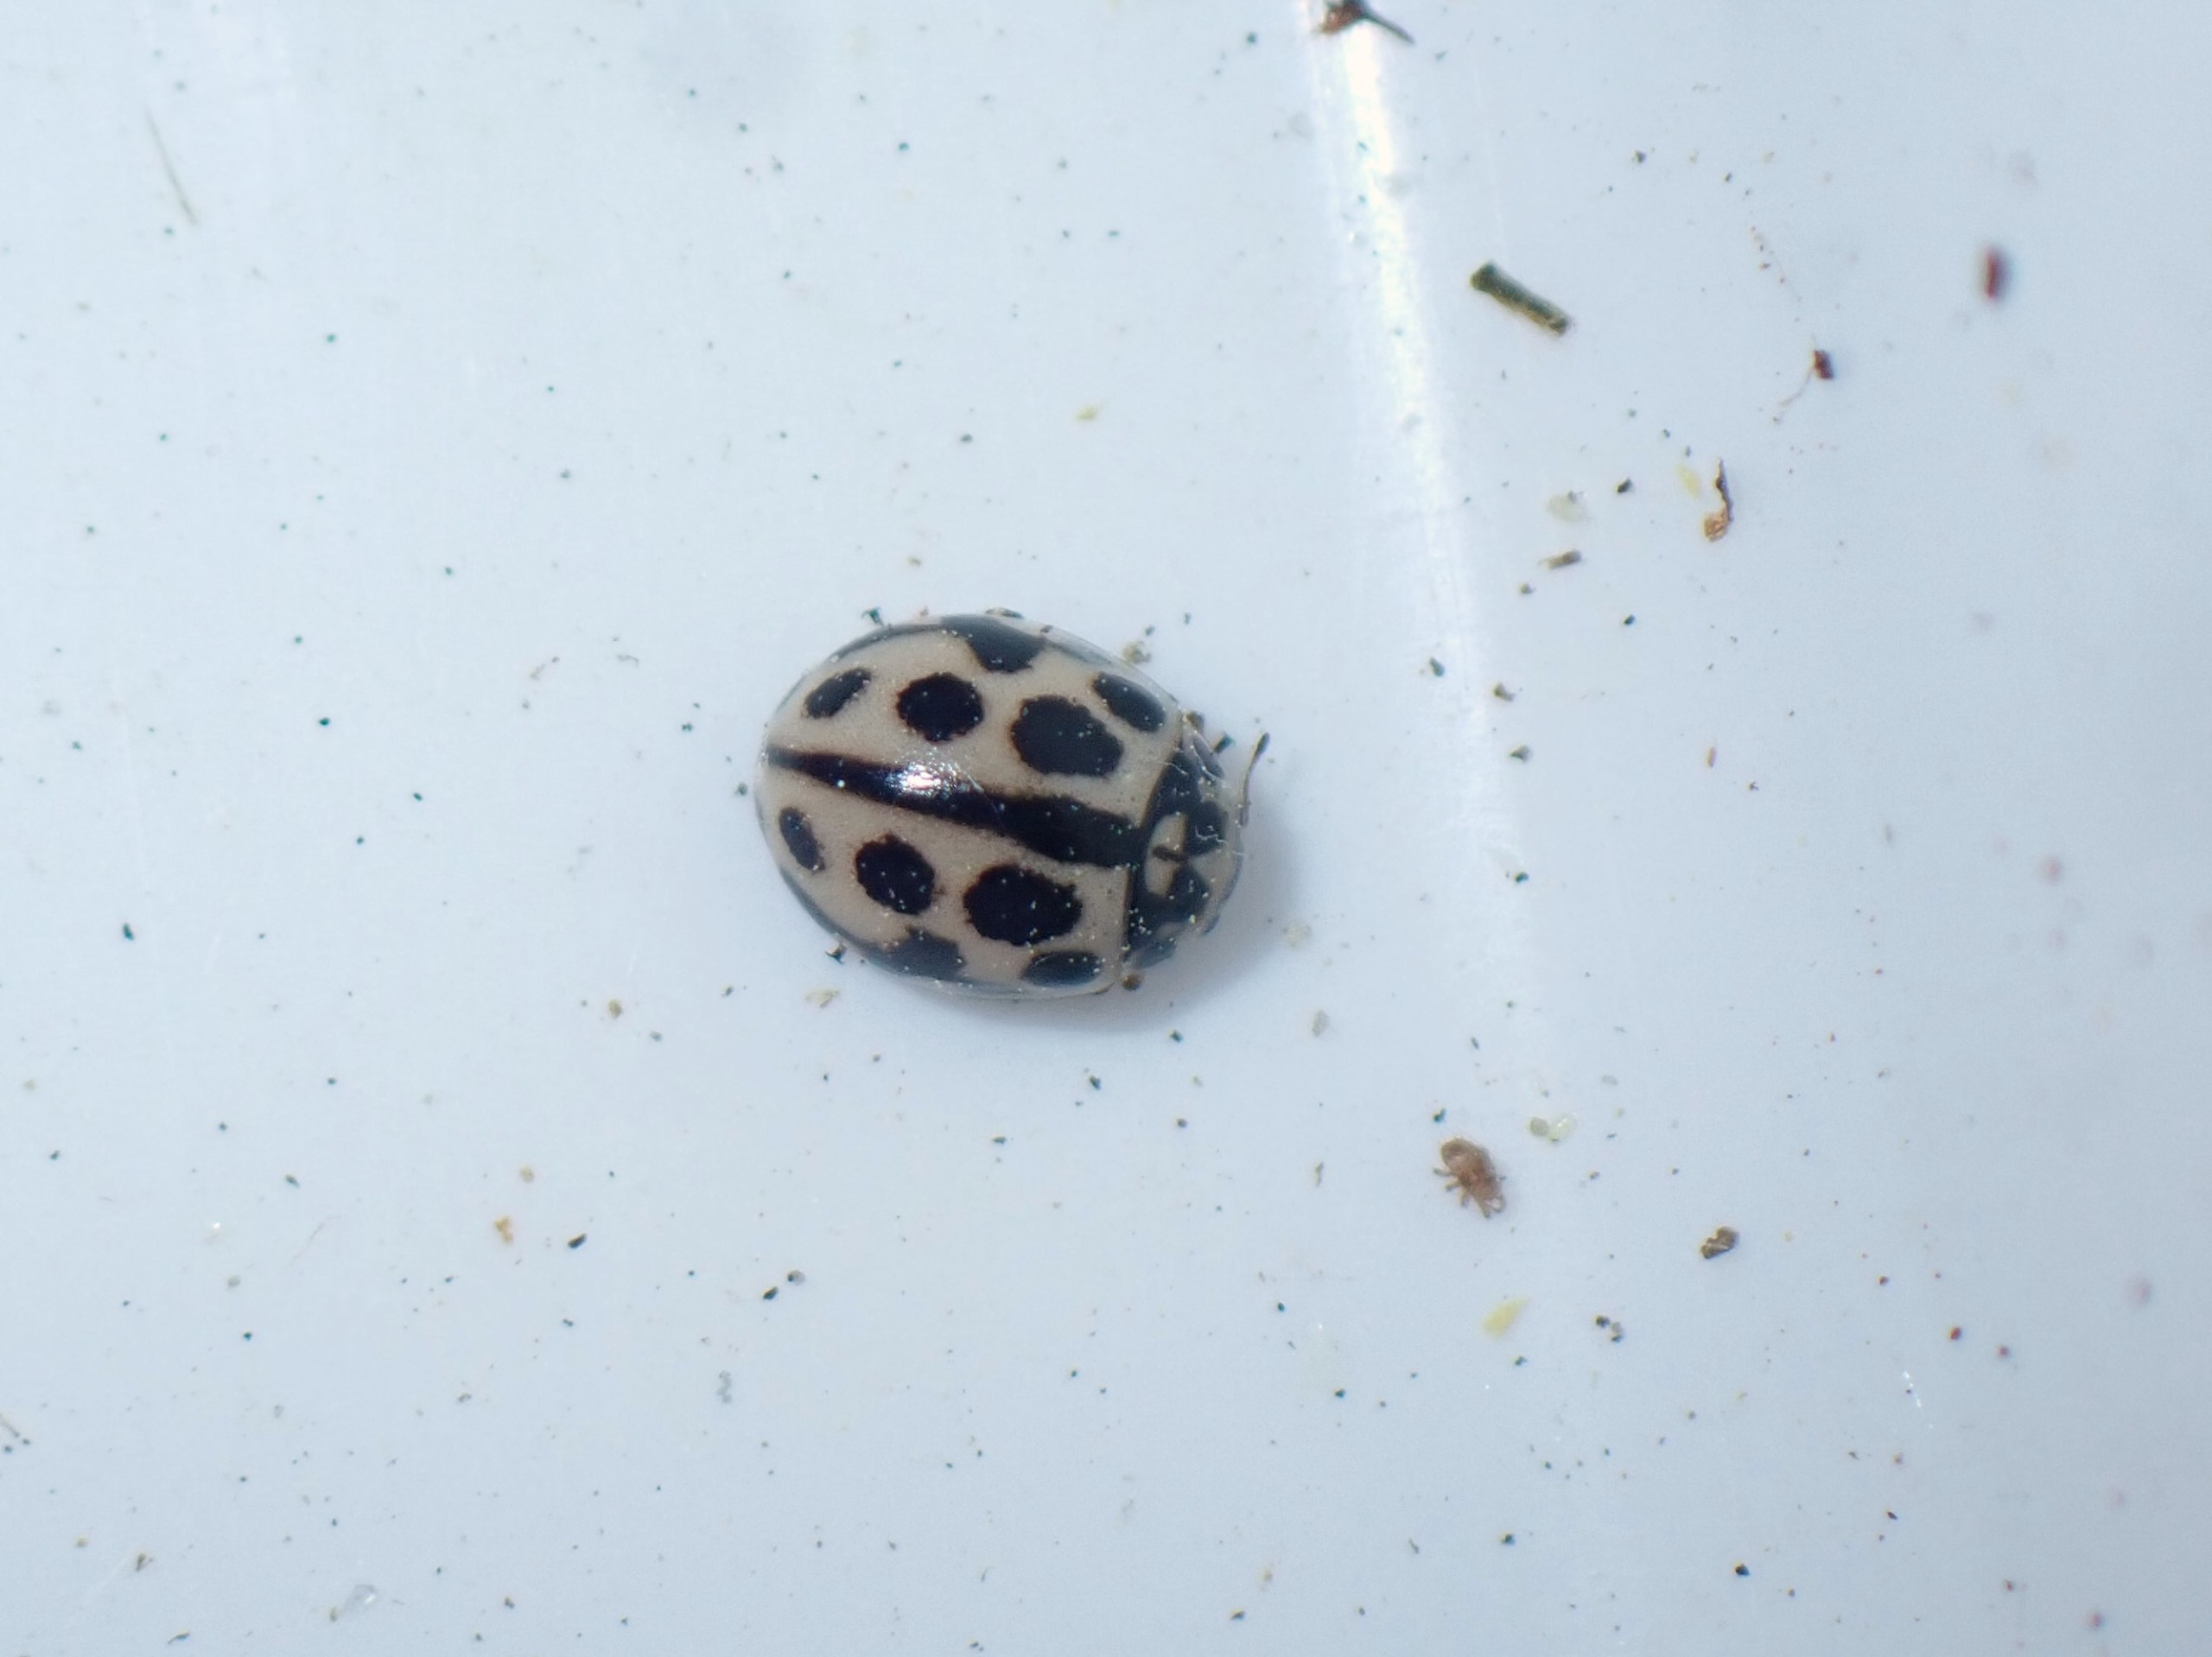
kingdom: Animalia
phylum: Arthropoda
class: Insecta
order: Coleoptera
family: Coccinellidae
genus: Tytthaspis
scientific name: Tytthaspis sedecimpunctata
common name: Sekstenprikket mariehøne
